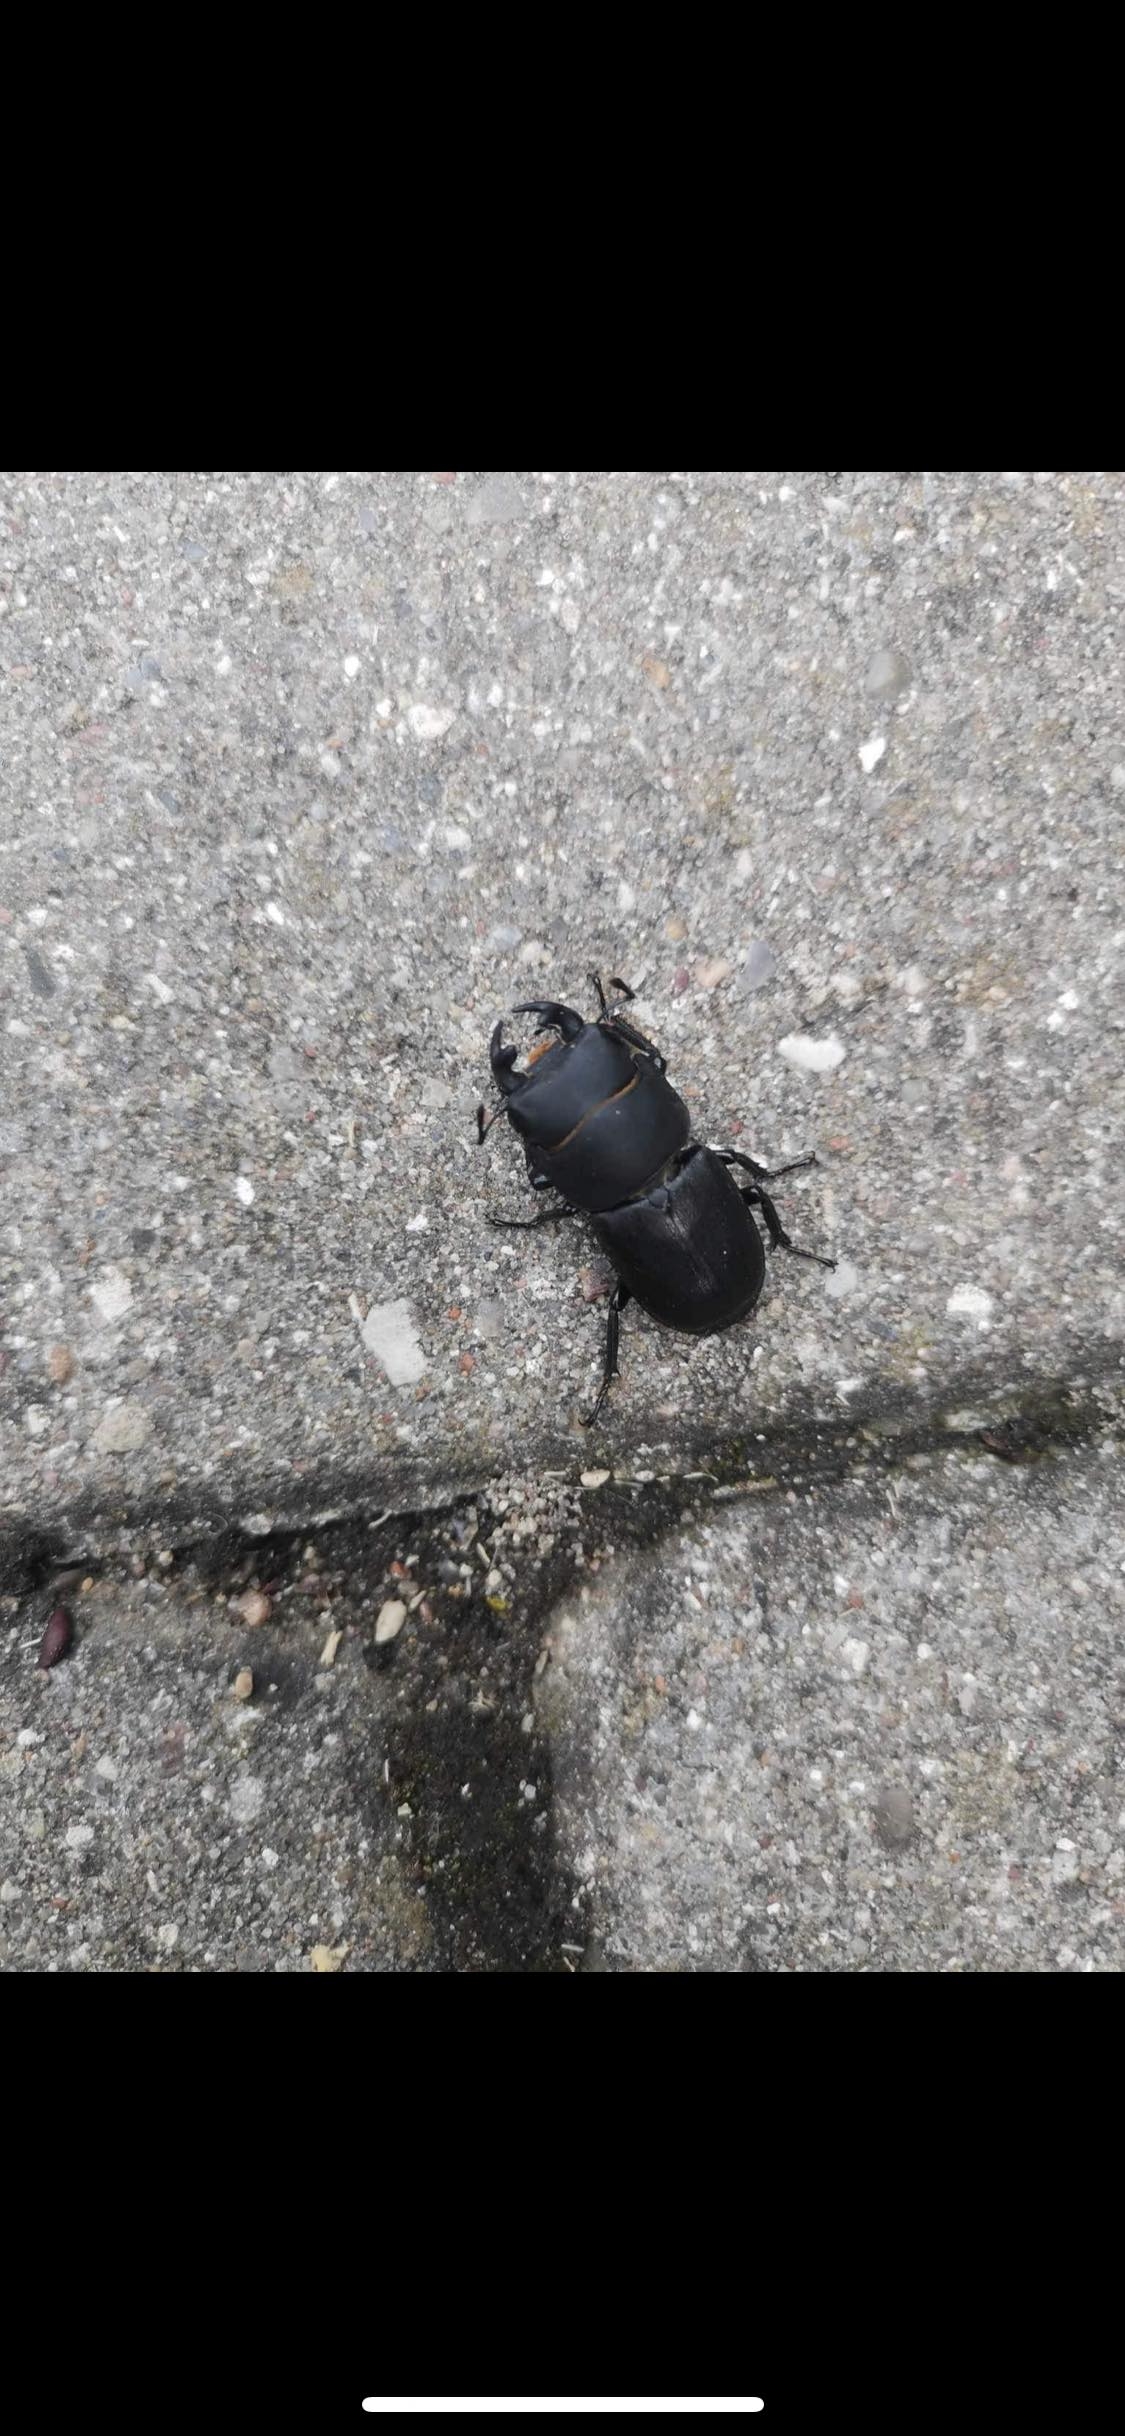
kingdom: Animalia
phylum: Arthropoda
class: Insecta
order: Coleoptera
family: Lucanidae
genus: Dorcus
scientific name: Dorcus parallelipipedus
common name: Bøghjort
